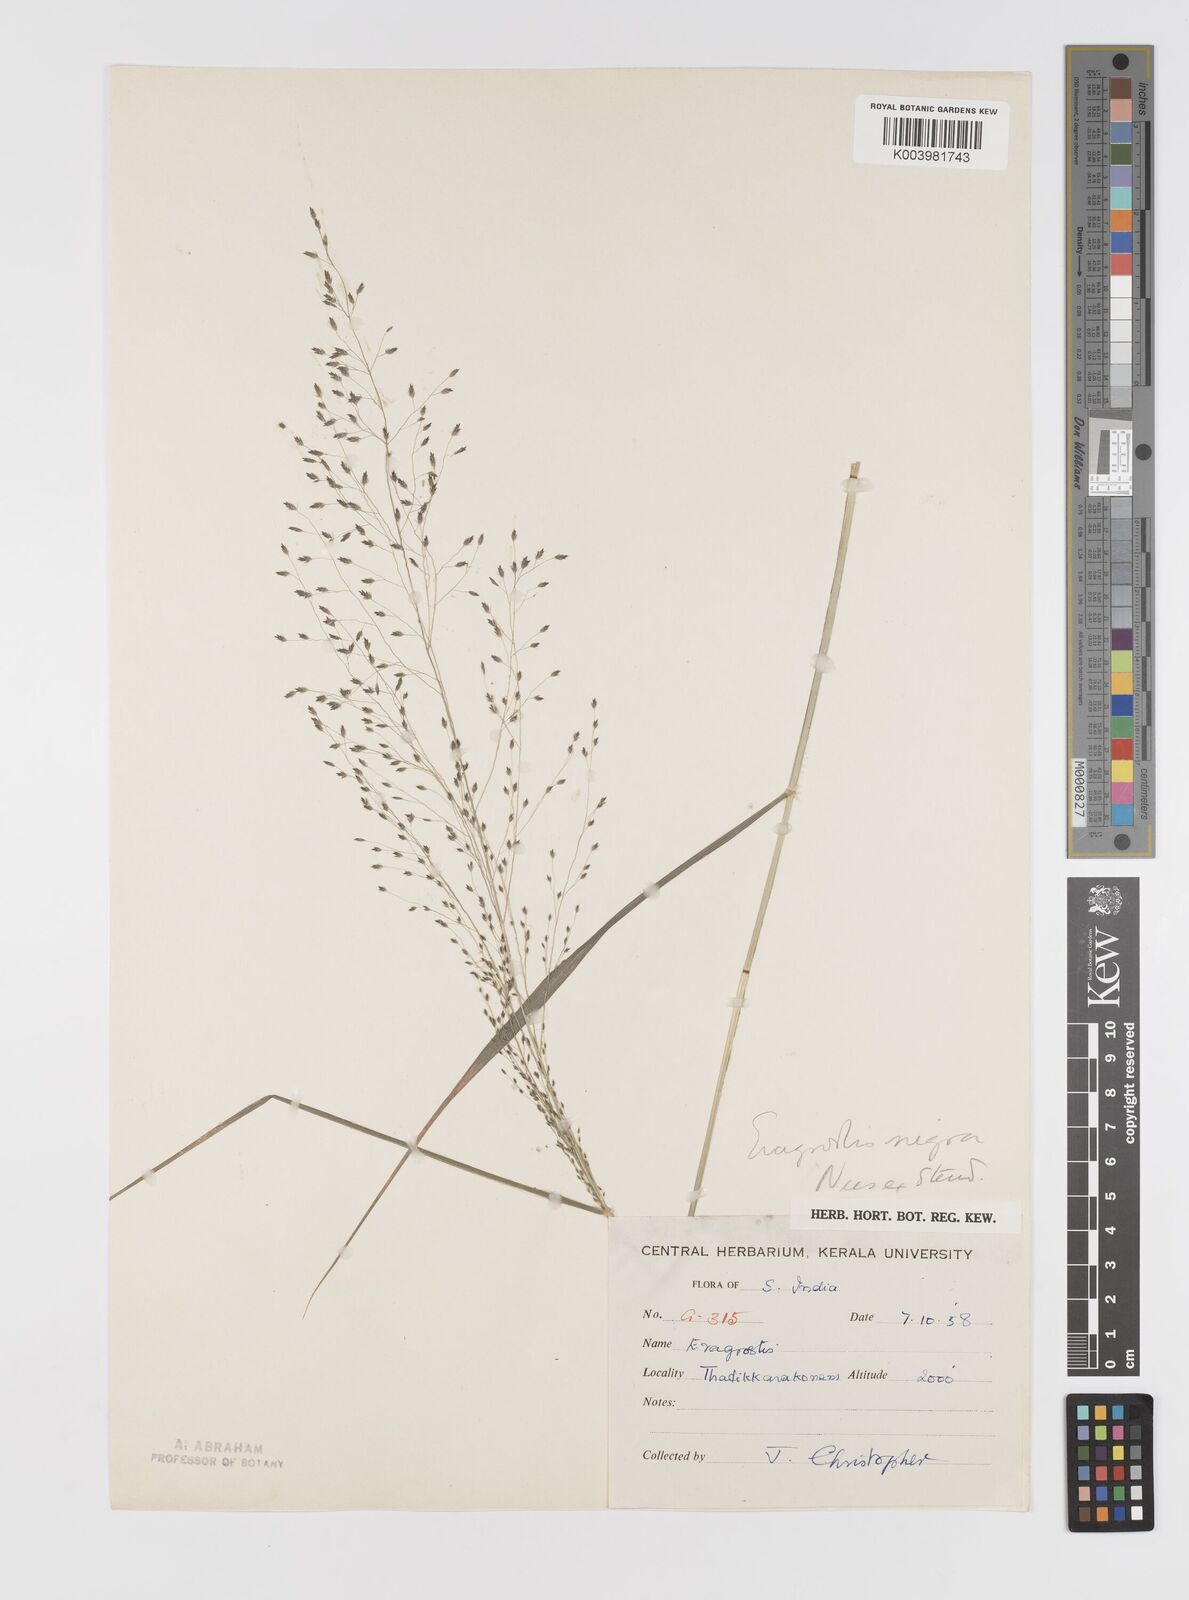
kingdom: Plantae
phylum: Tracheophyta
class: Liliopsida
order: Poales
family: Poaceae
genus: Eragrostis
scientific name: Eragrostis nigra
